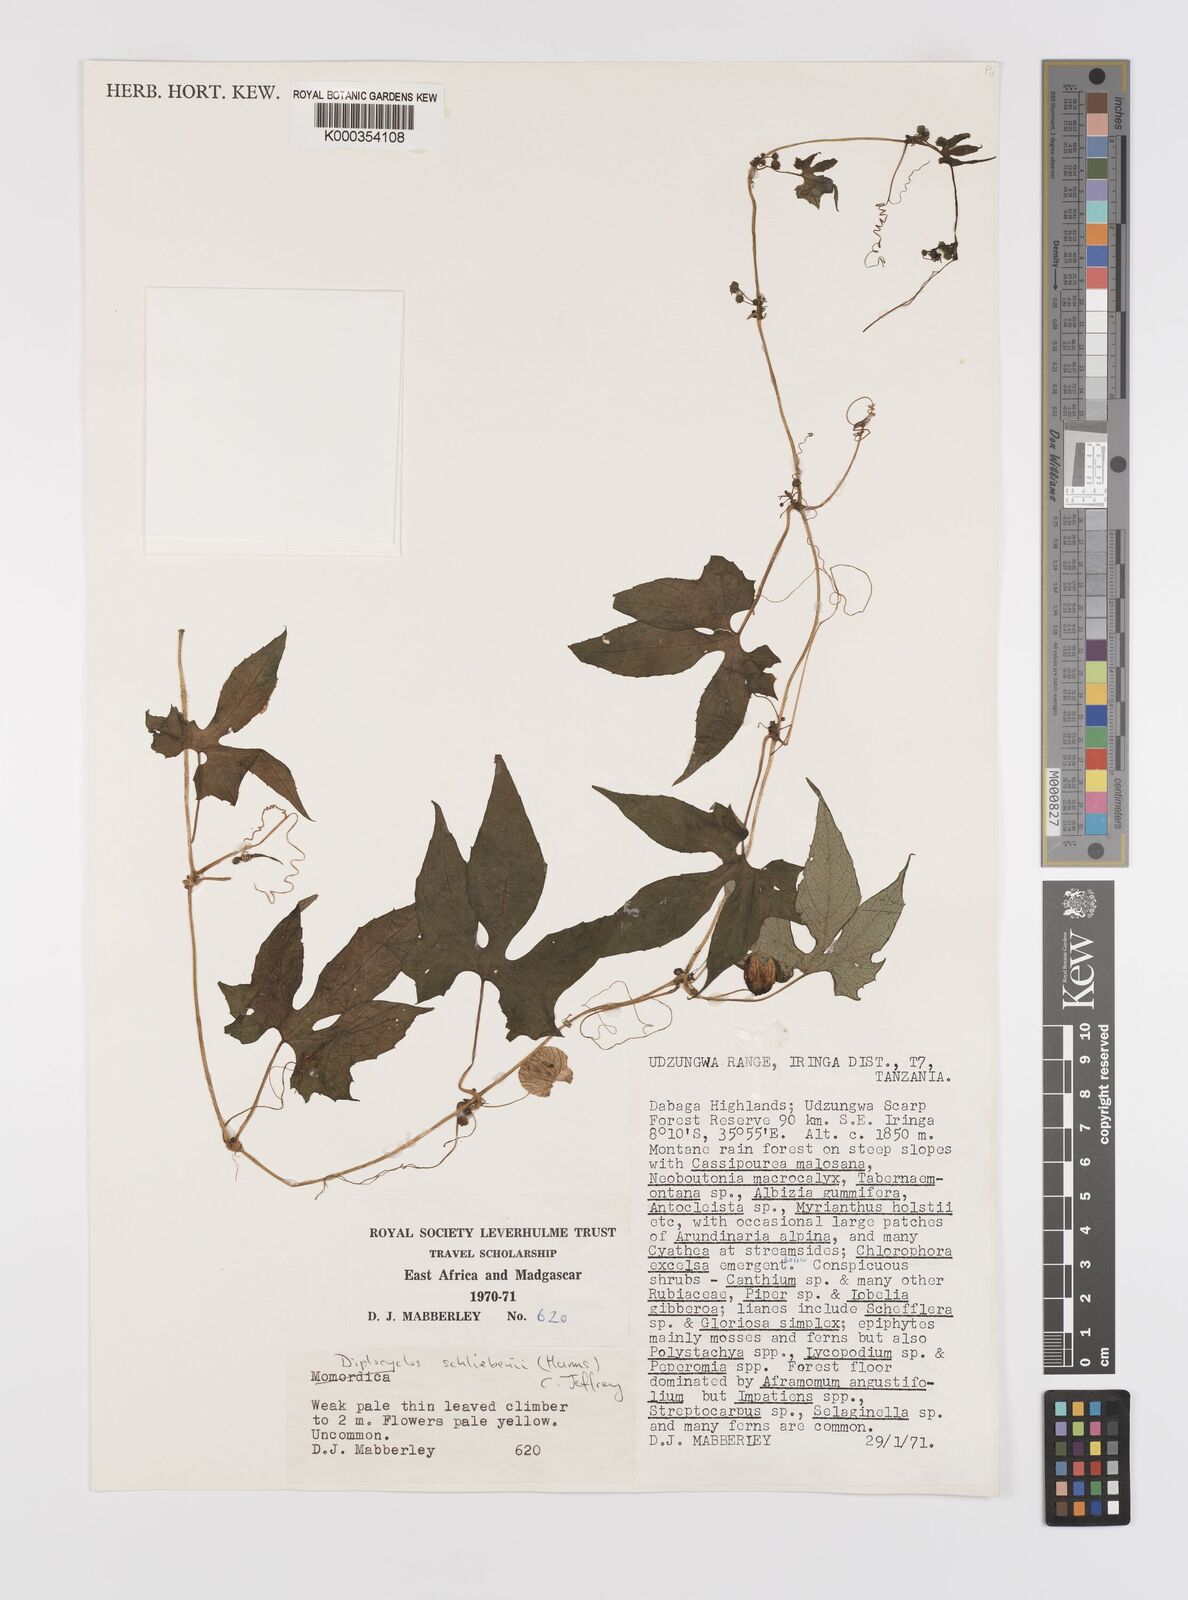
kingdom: Plantae
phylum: Tracheophyta
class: Magnoliopsida
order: Cucurbitales
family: Cucurbitaceae
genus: Diplocyclos
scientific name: Diplocyclos schliebenii
